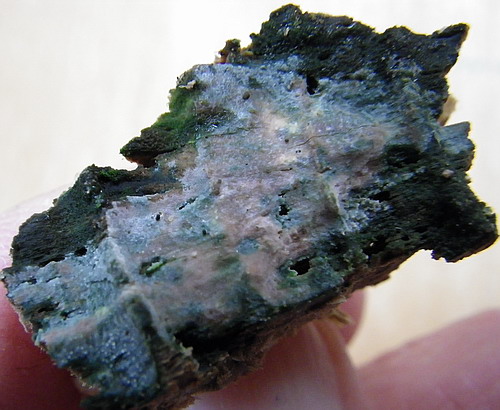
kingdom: Fungi
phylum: Basidiomycota
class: Agaricomycetes
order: Hymenochaetales
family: Repetobasidiaceae
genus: Skvortzovia
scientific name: Skvortzovia furfuracea
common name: tynd vokstand
